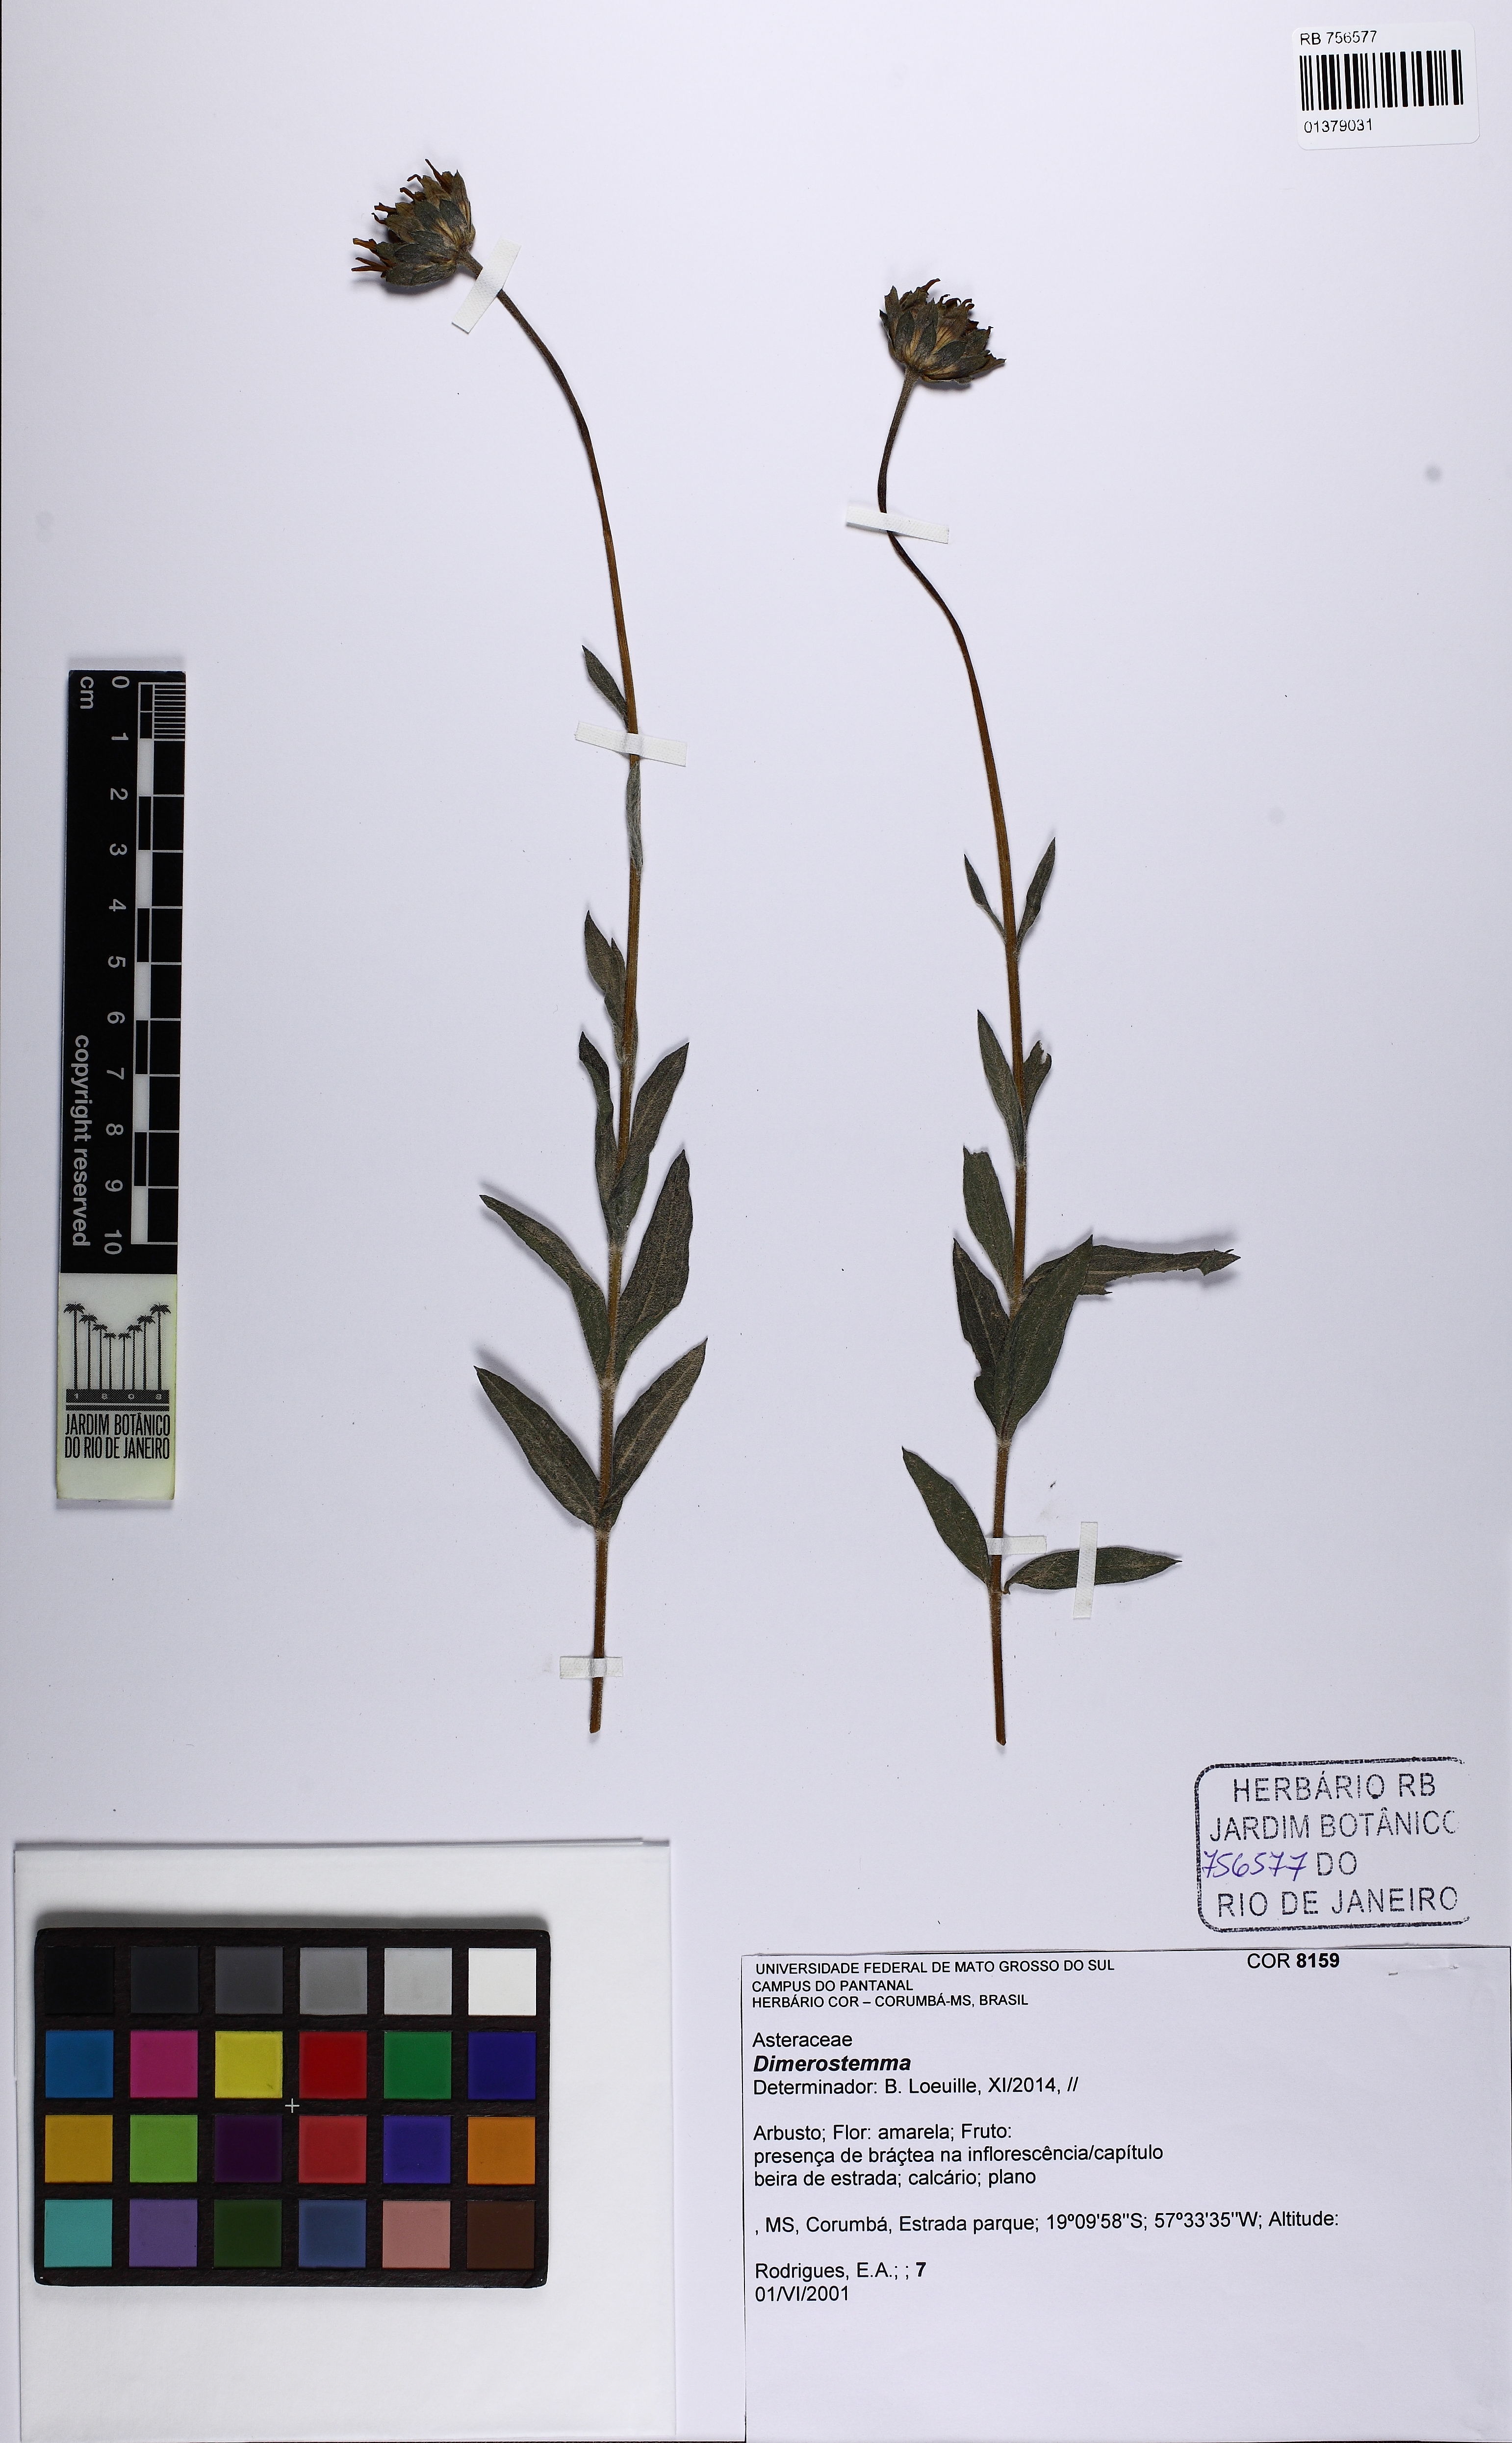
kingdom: Plantae
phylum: Tracheophyta
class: Magnoliopsida
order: Asterales
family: Asteraceae
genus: Dimerostemma
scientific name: Dimerostemma
